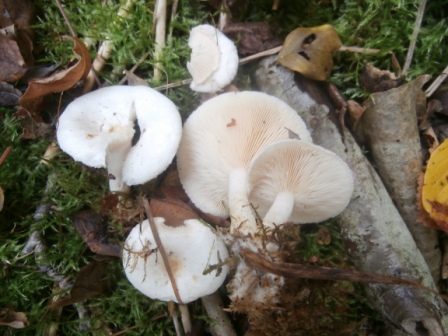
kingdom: Fungi
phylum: Basidiomycota
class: Agaricomycetes
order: Russulales
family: Russulaceae
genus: Lactarius
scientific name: Lactarius pubescens
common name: dunet mælkehat
